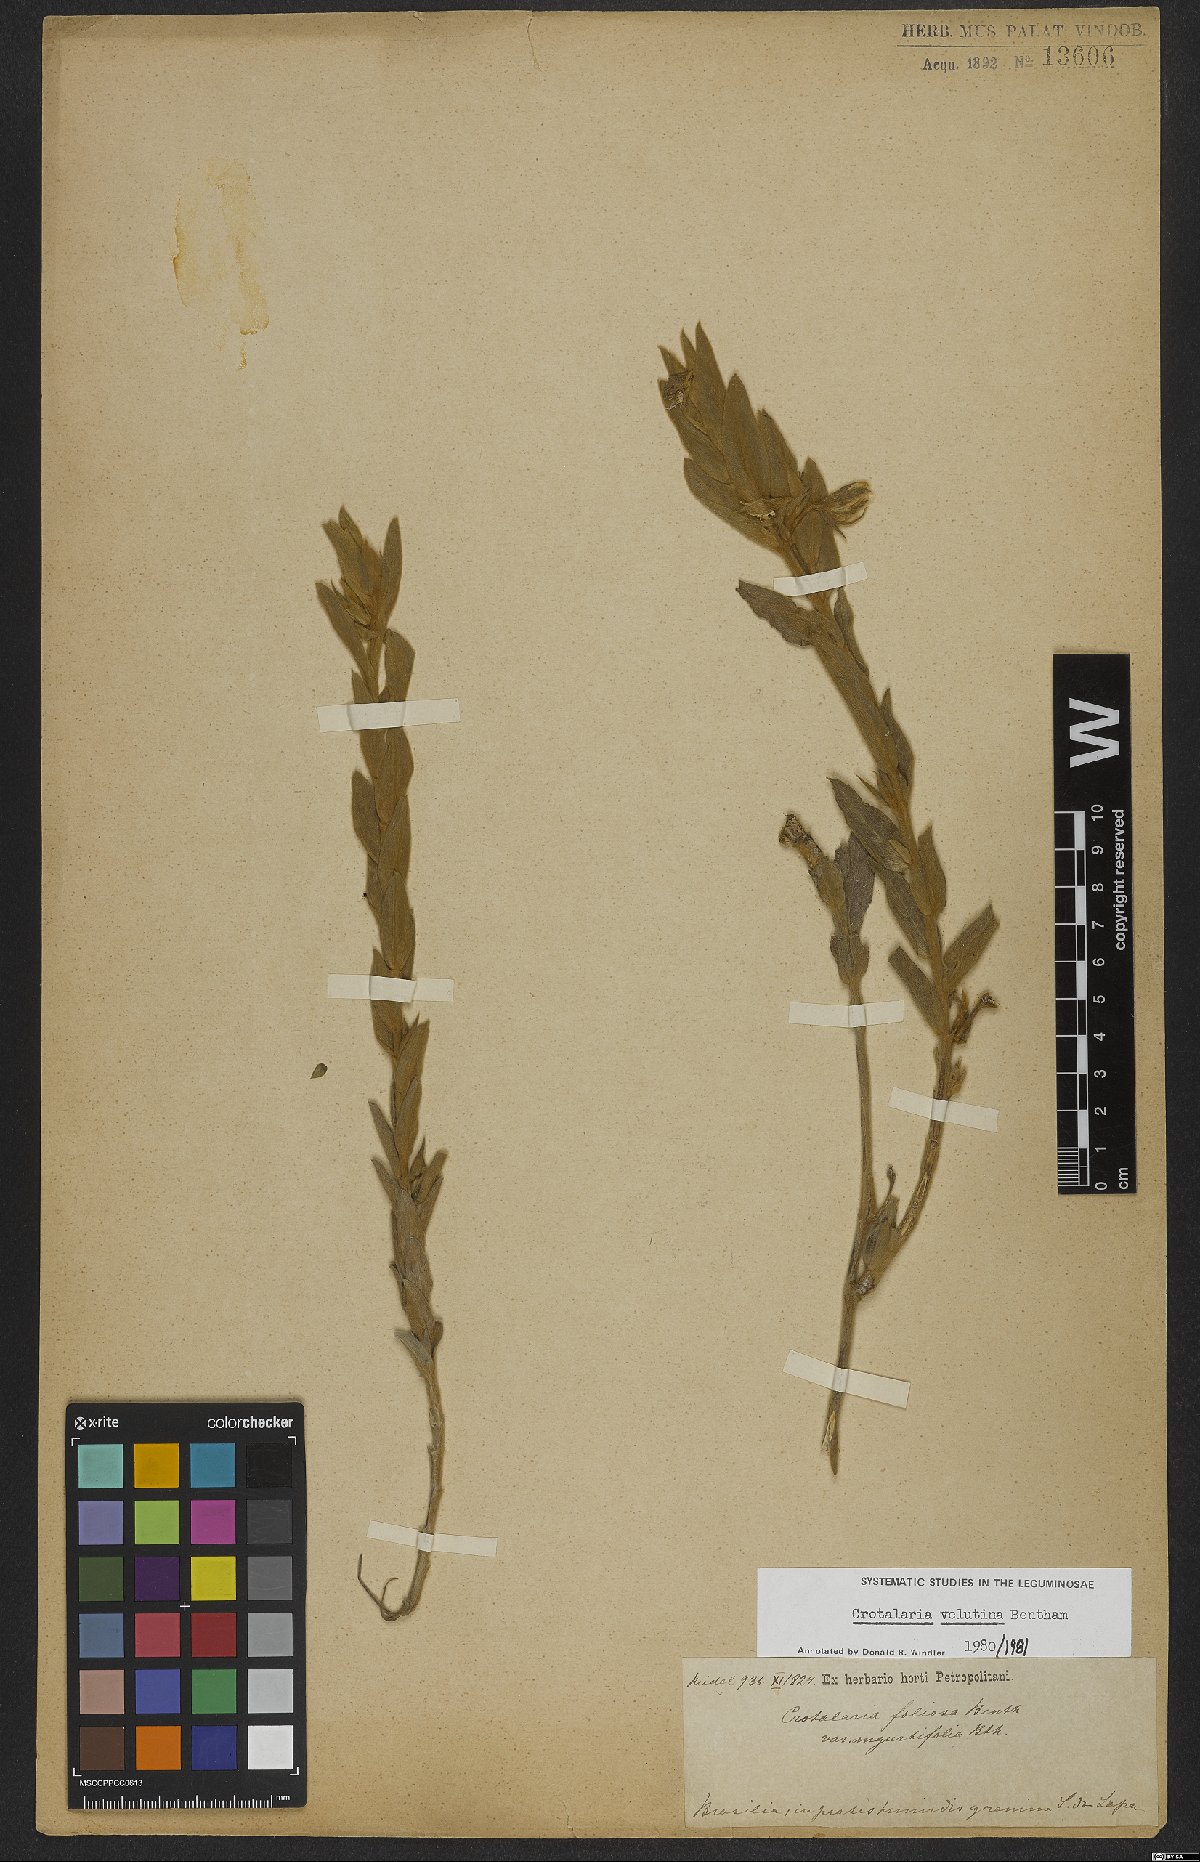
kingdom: Plantae
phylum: Tracheophyta
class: Magnoliopsida
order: Fabales
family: Fabaceae
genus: Crotalaria
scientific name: Crotalaria velutina
